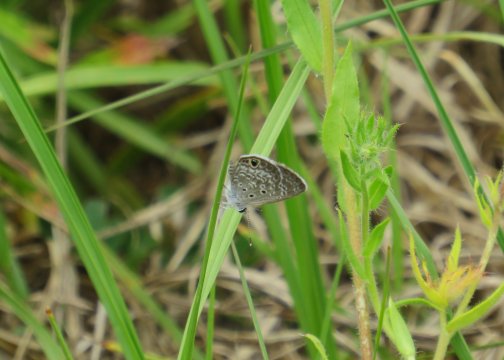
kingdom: Animalia
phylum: Arthropoda
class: Insecta
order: Lepidoptera
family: Lycaenidae
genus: Hemiargus
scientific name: Hemiargus ceraunus
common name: Ceraunus Blue
